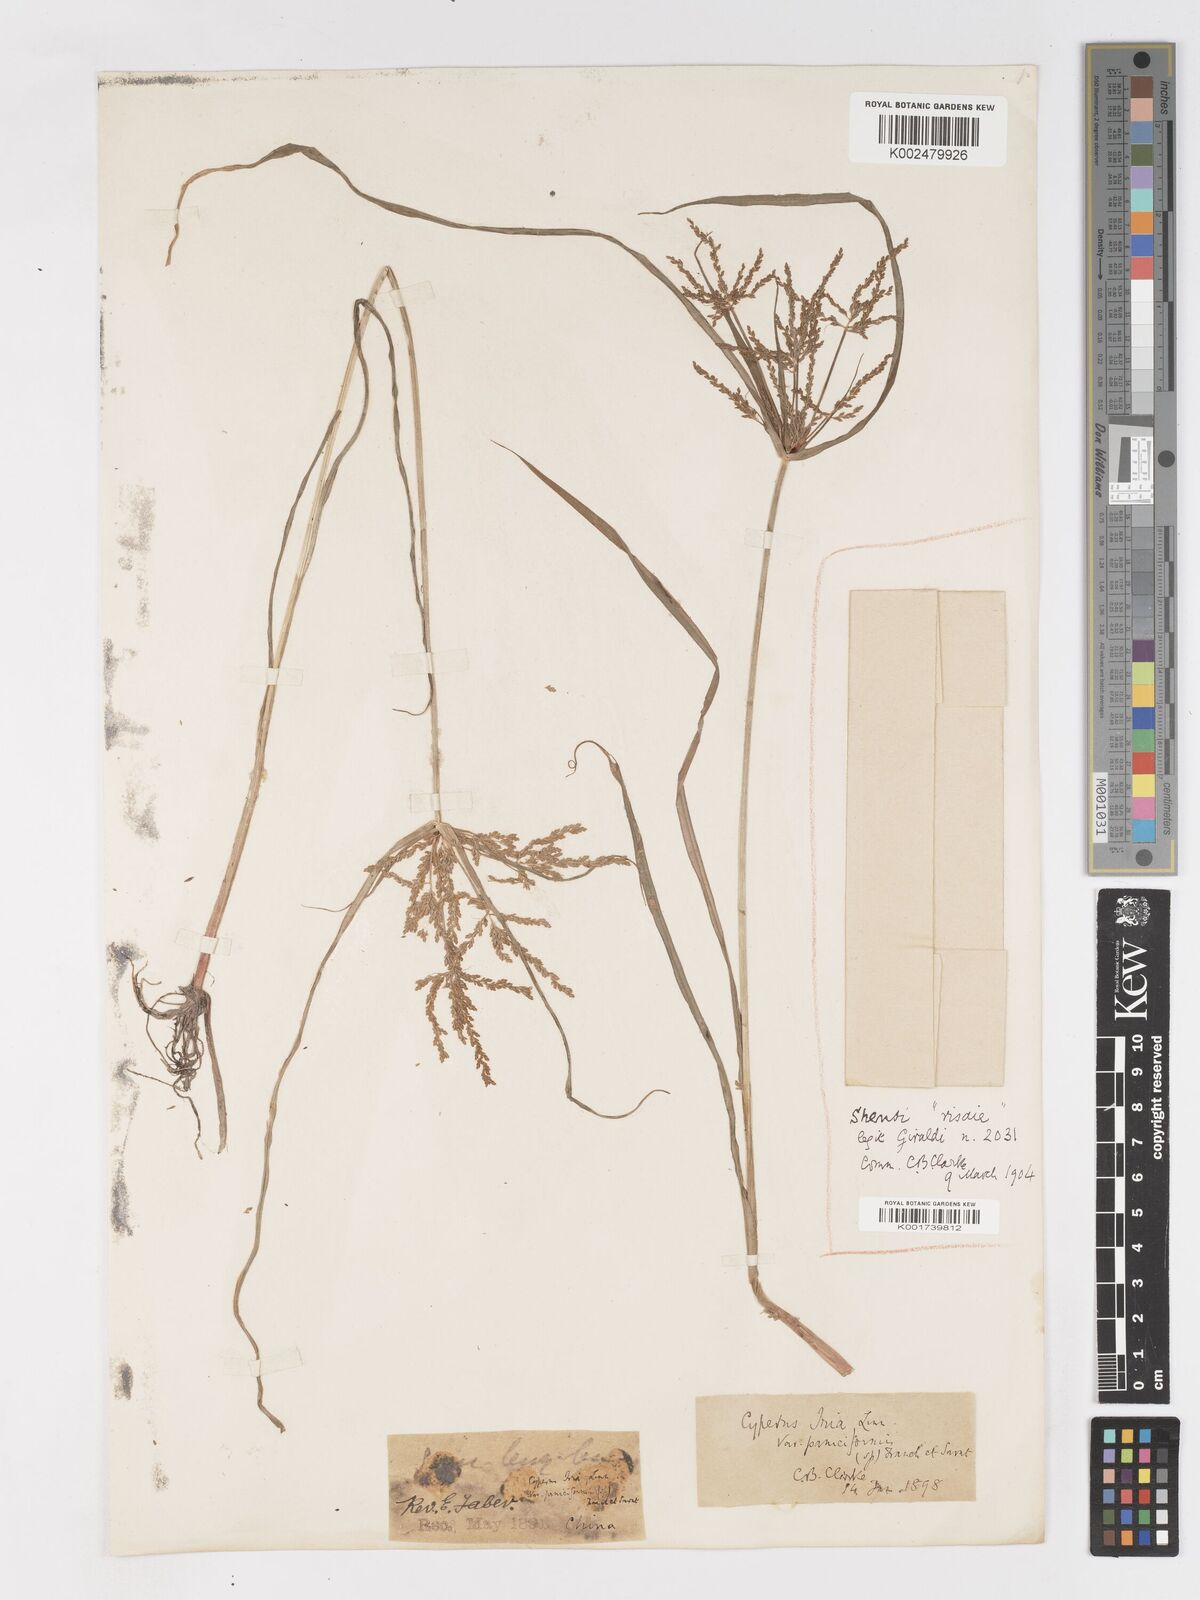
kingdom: Plantae
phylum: Tracheophyta
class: Liliopsida
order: Poales
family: Cyperaceae
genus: Cyperus
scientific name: Cyperus iria
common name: Ricefield flatsedge
